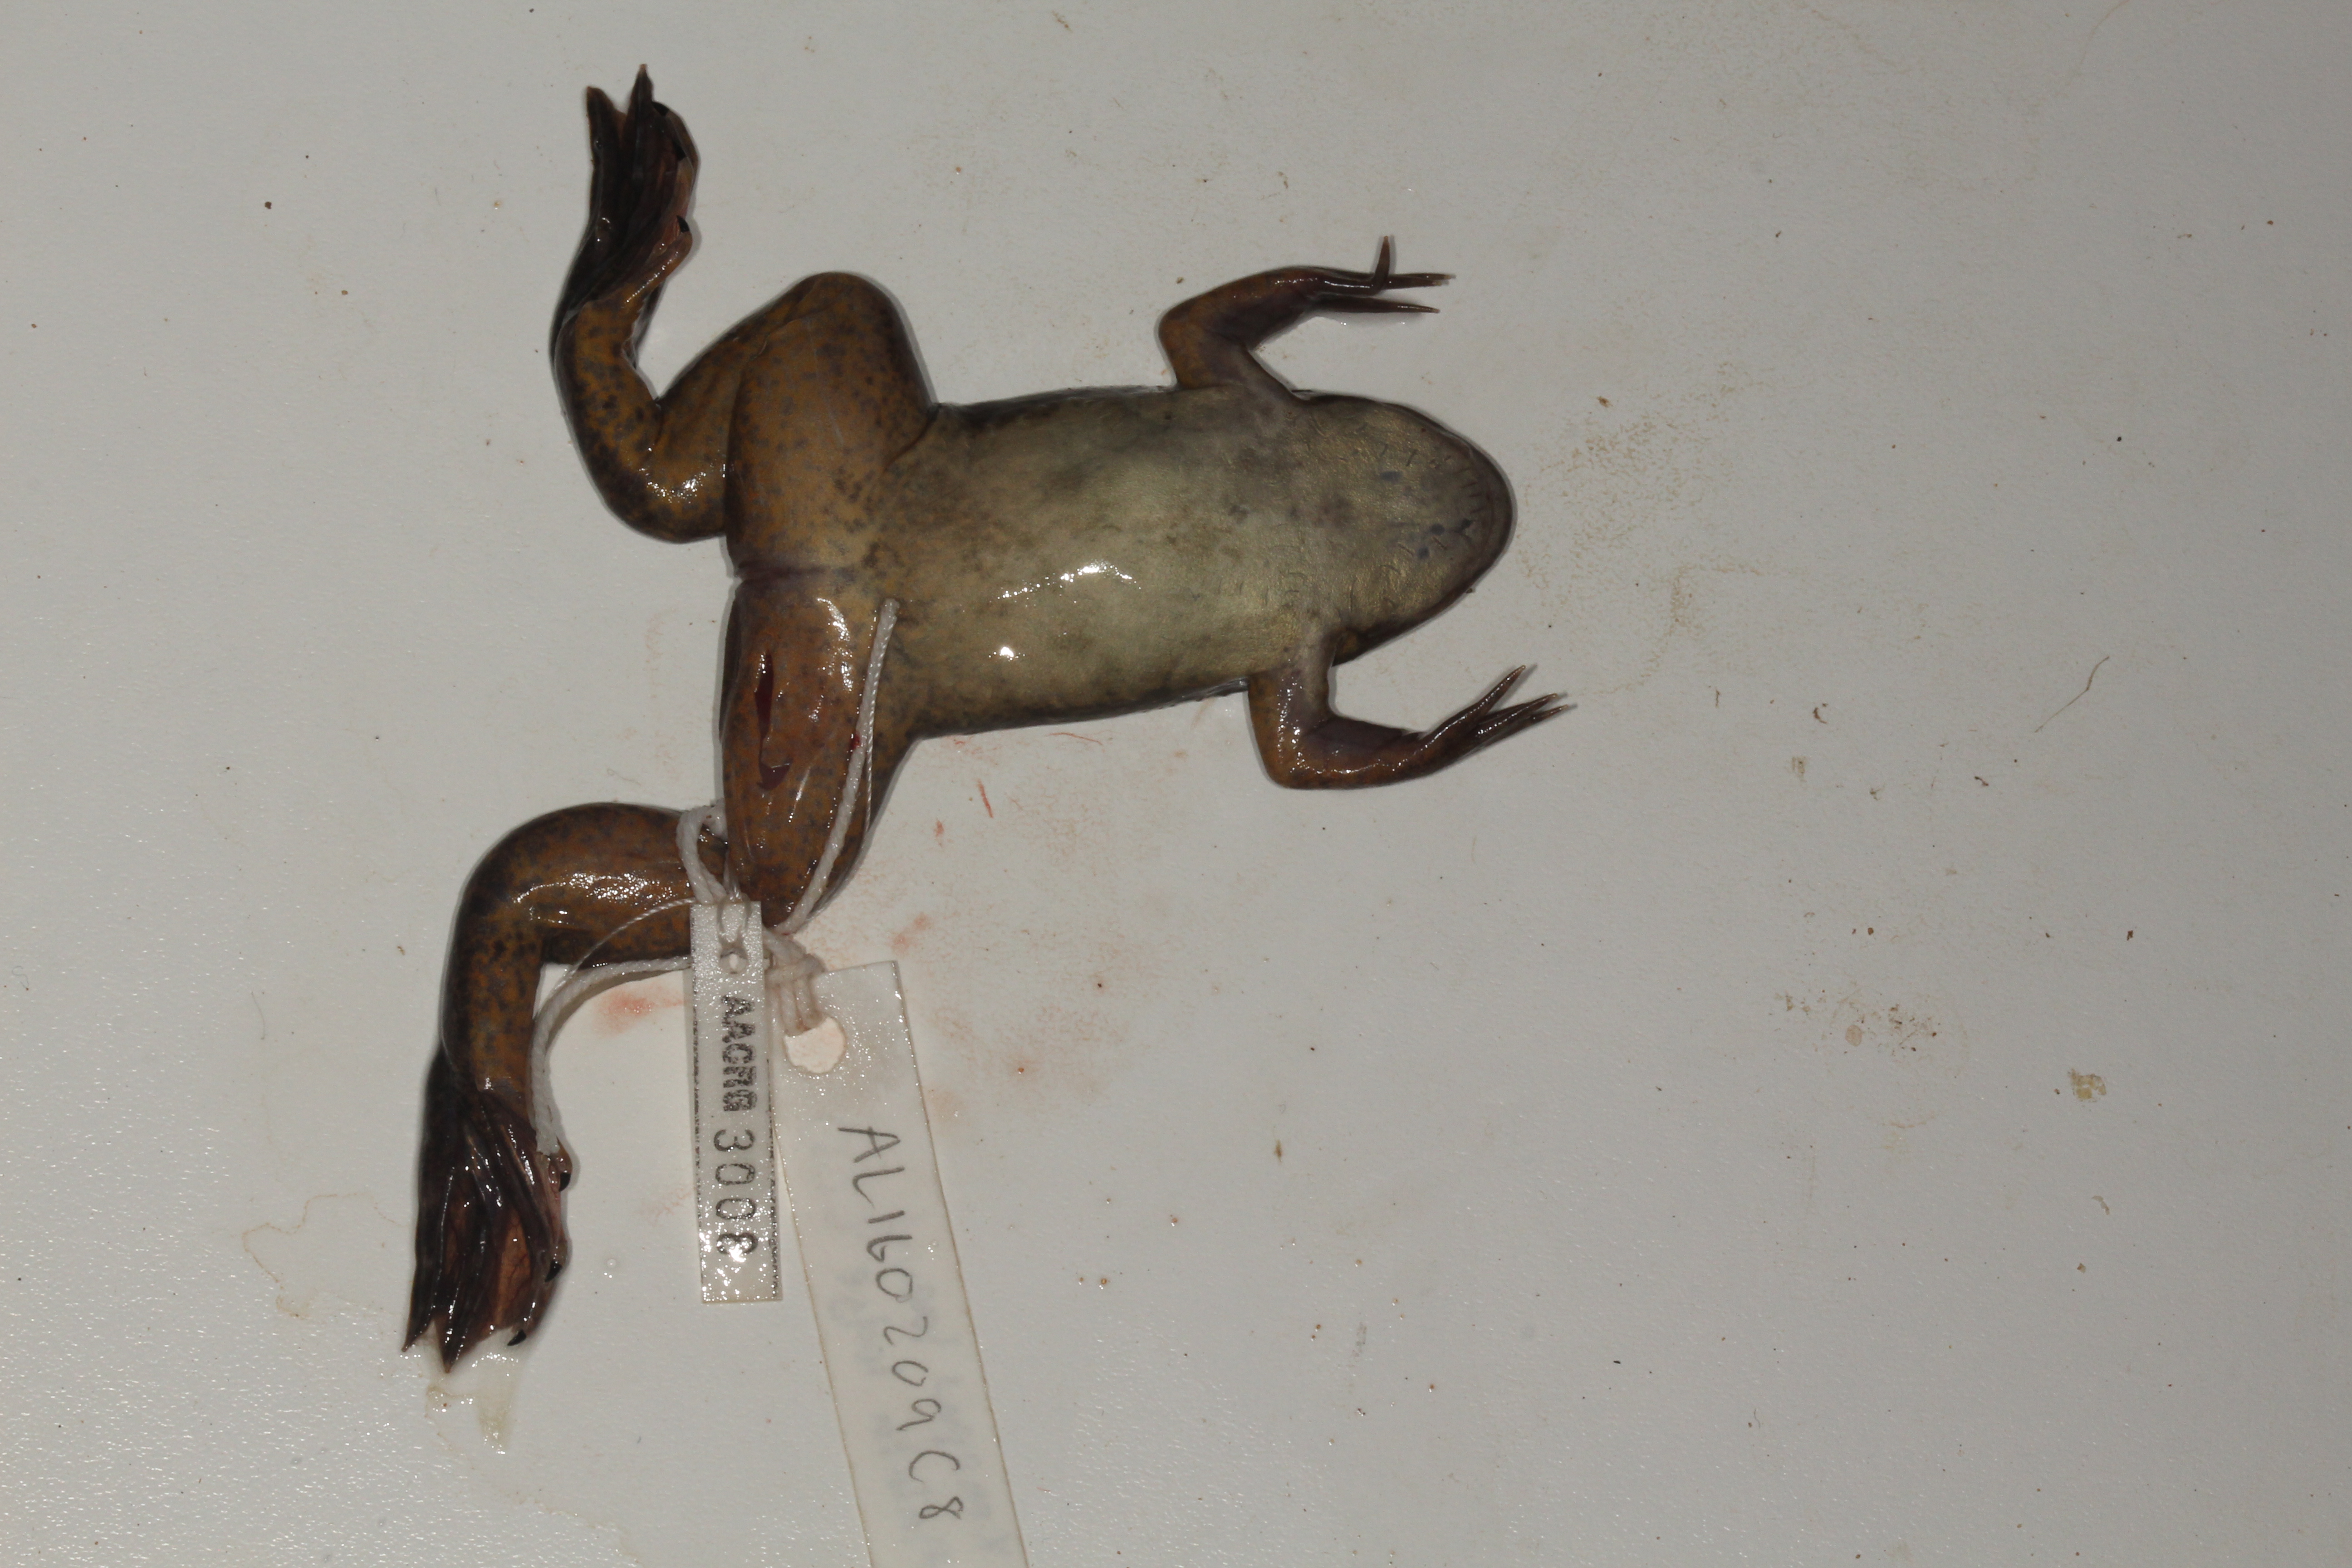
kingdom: Animalia
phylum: Chordata
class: Amphibia
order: Anura
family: Pipidae
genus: Xenopus
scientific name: Xenopus laevis
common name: African clawed frog
